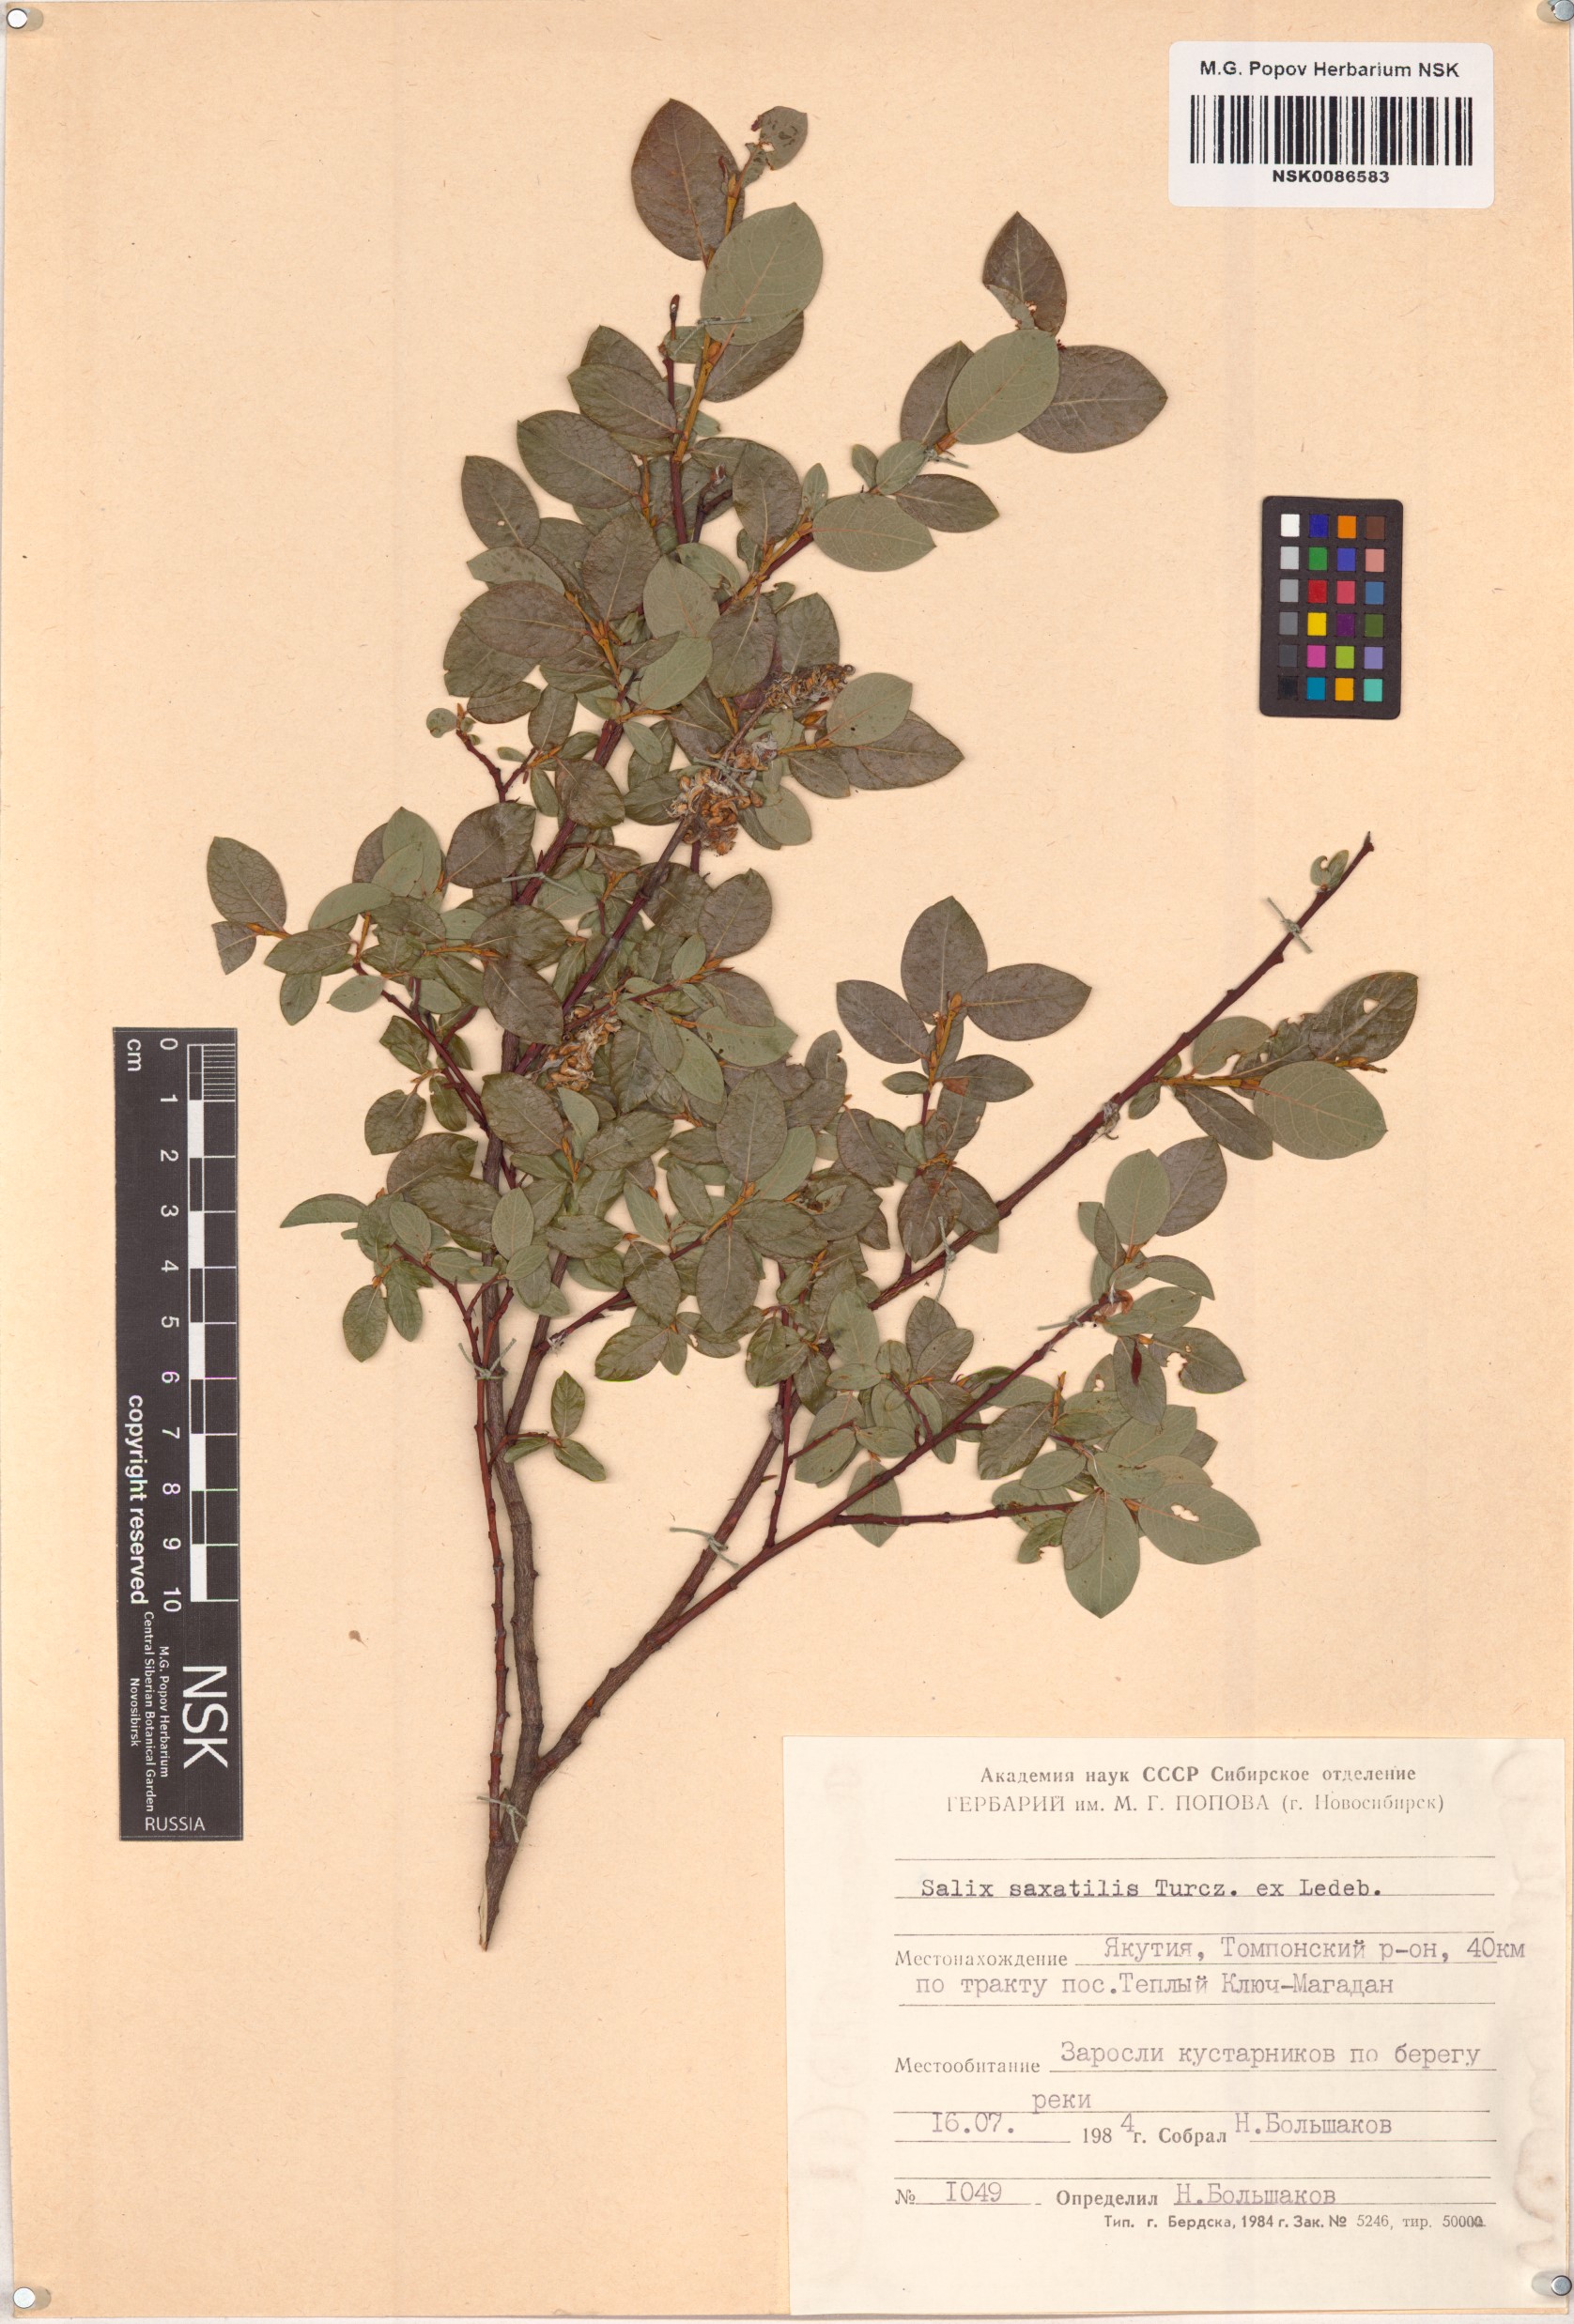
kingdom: Plantae
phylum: Tracheophyta
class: Magnoliopsida
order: Malpighiales
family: Salicaceae
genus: Salix
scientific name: Salix saxatilis
